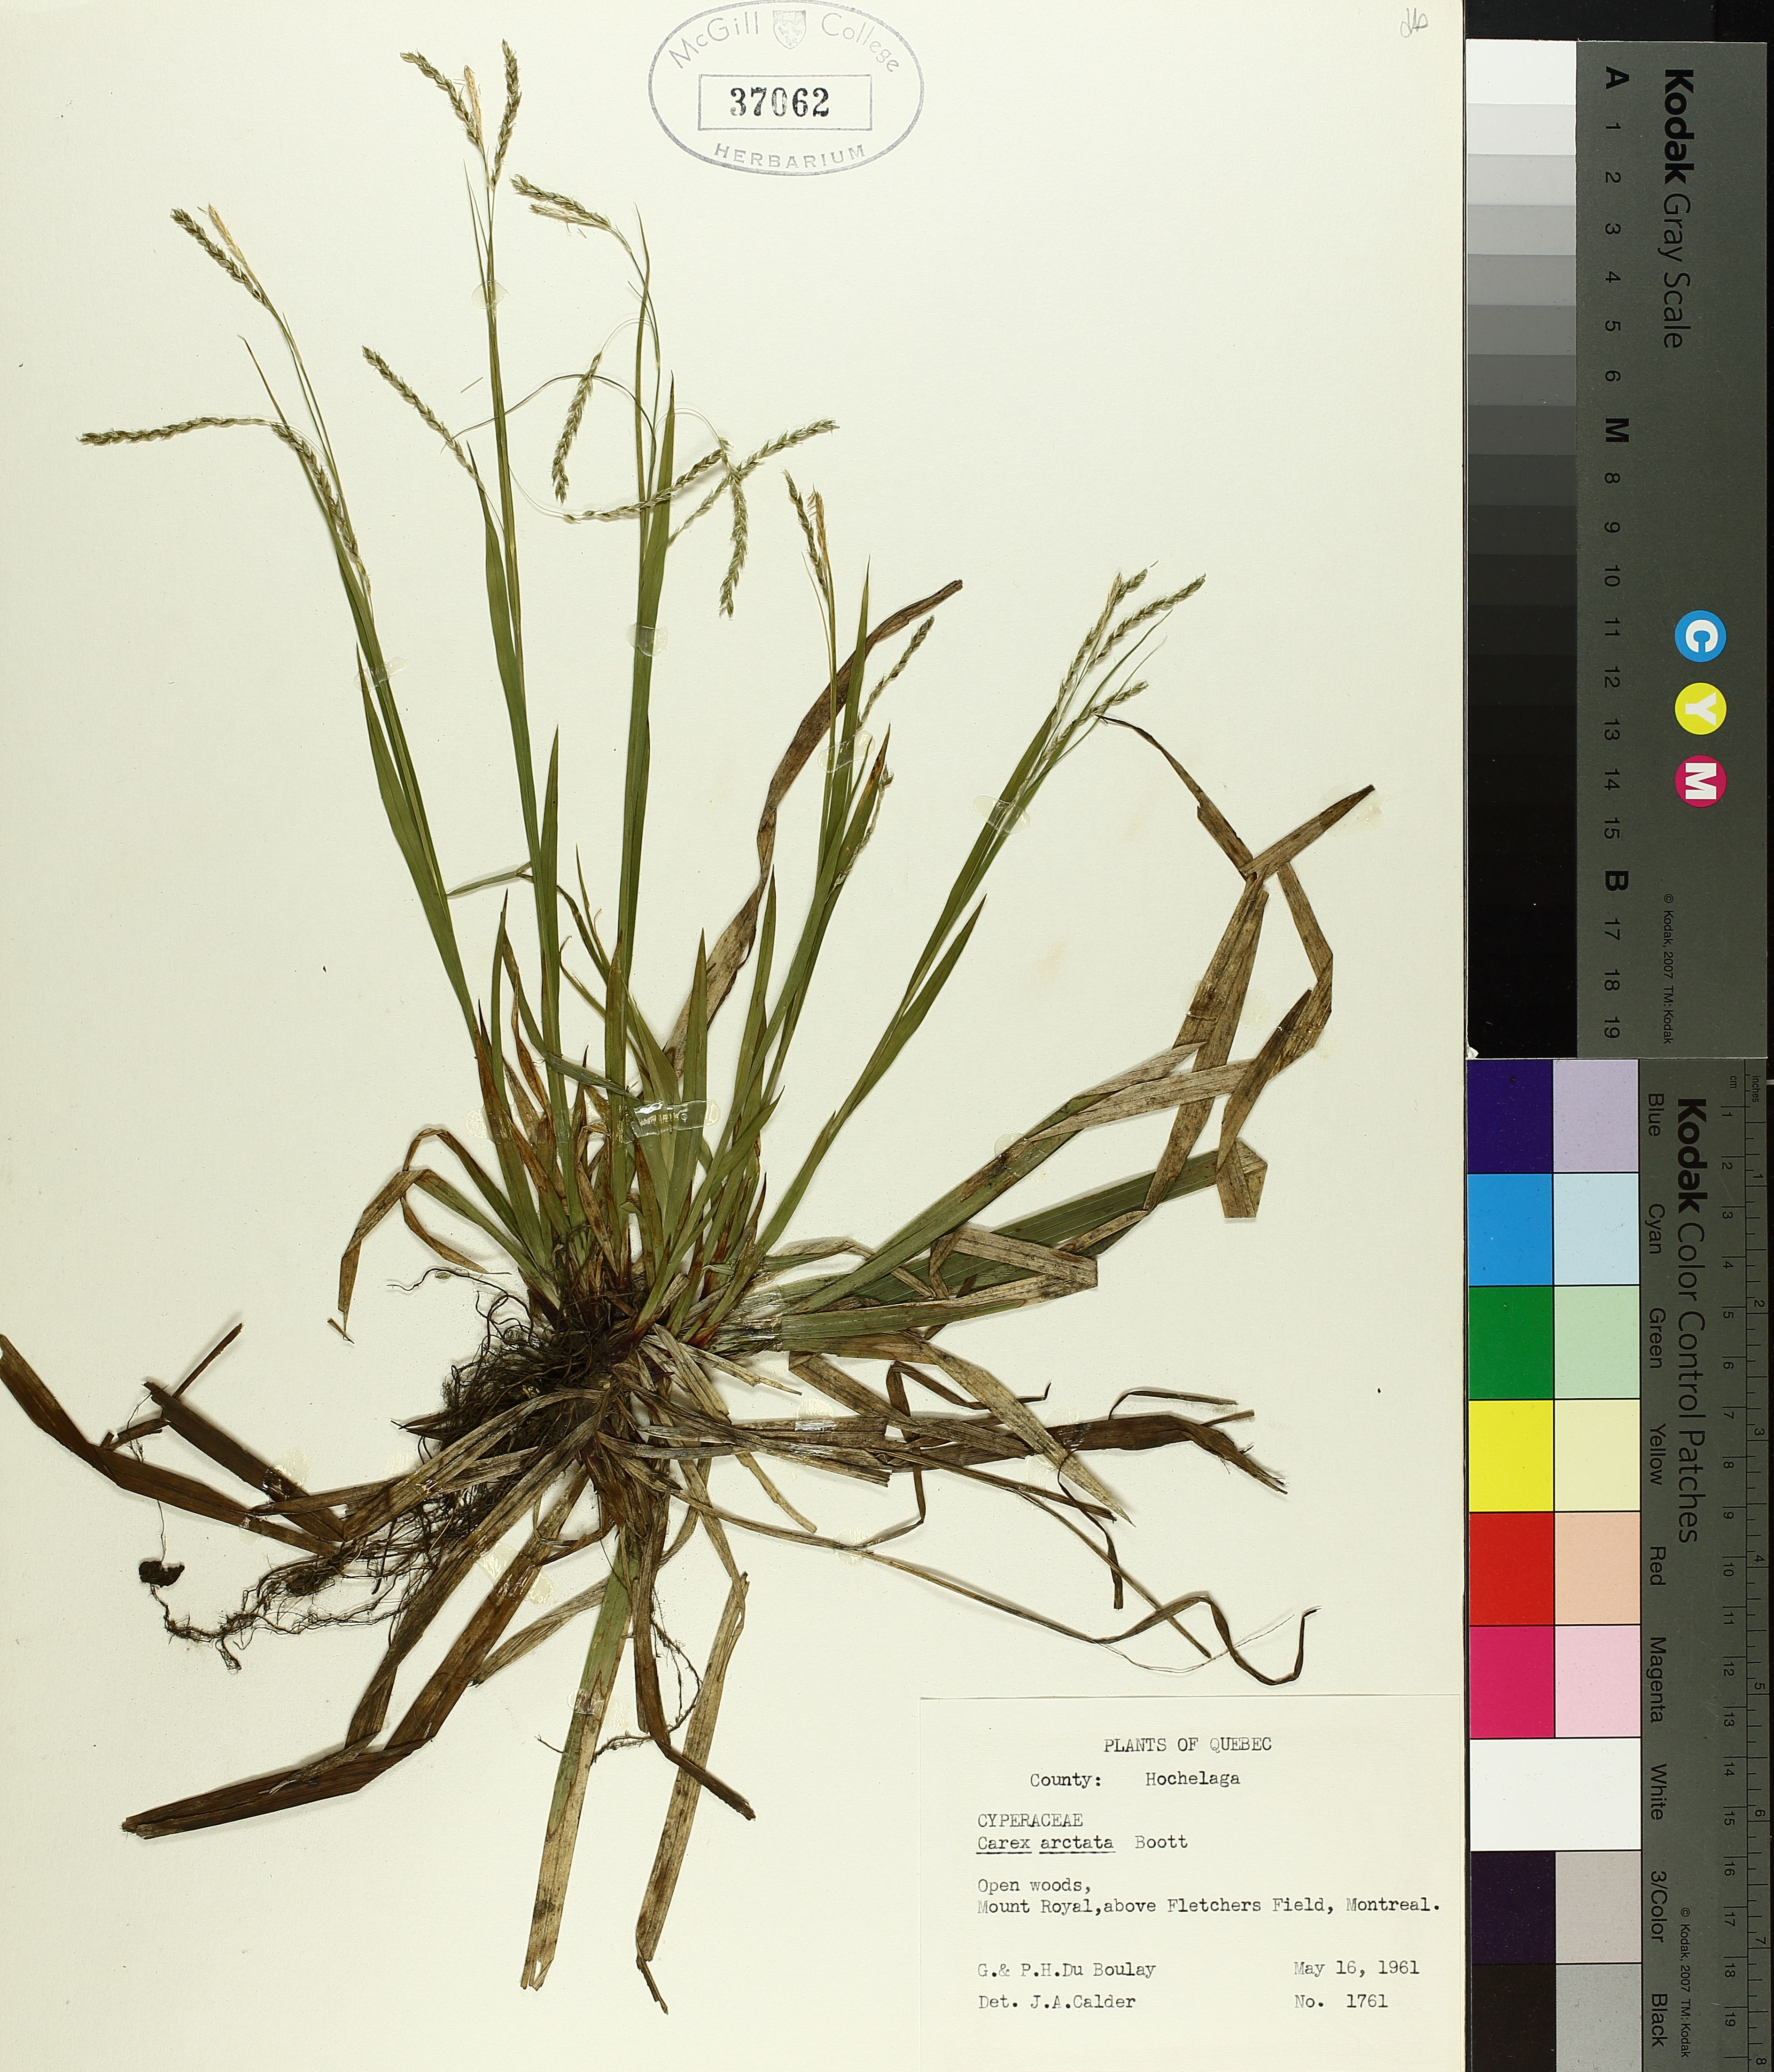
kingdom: Plantae
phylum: Tracheophyta
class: Liliopsida
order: Poales
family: Cyperaceae
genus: Carex
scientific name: Carex arctata
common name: Black sedge
